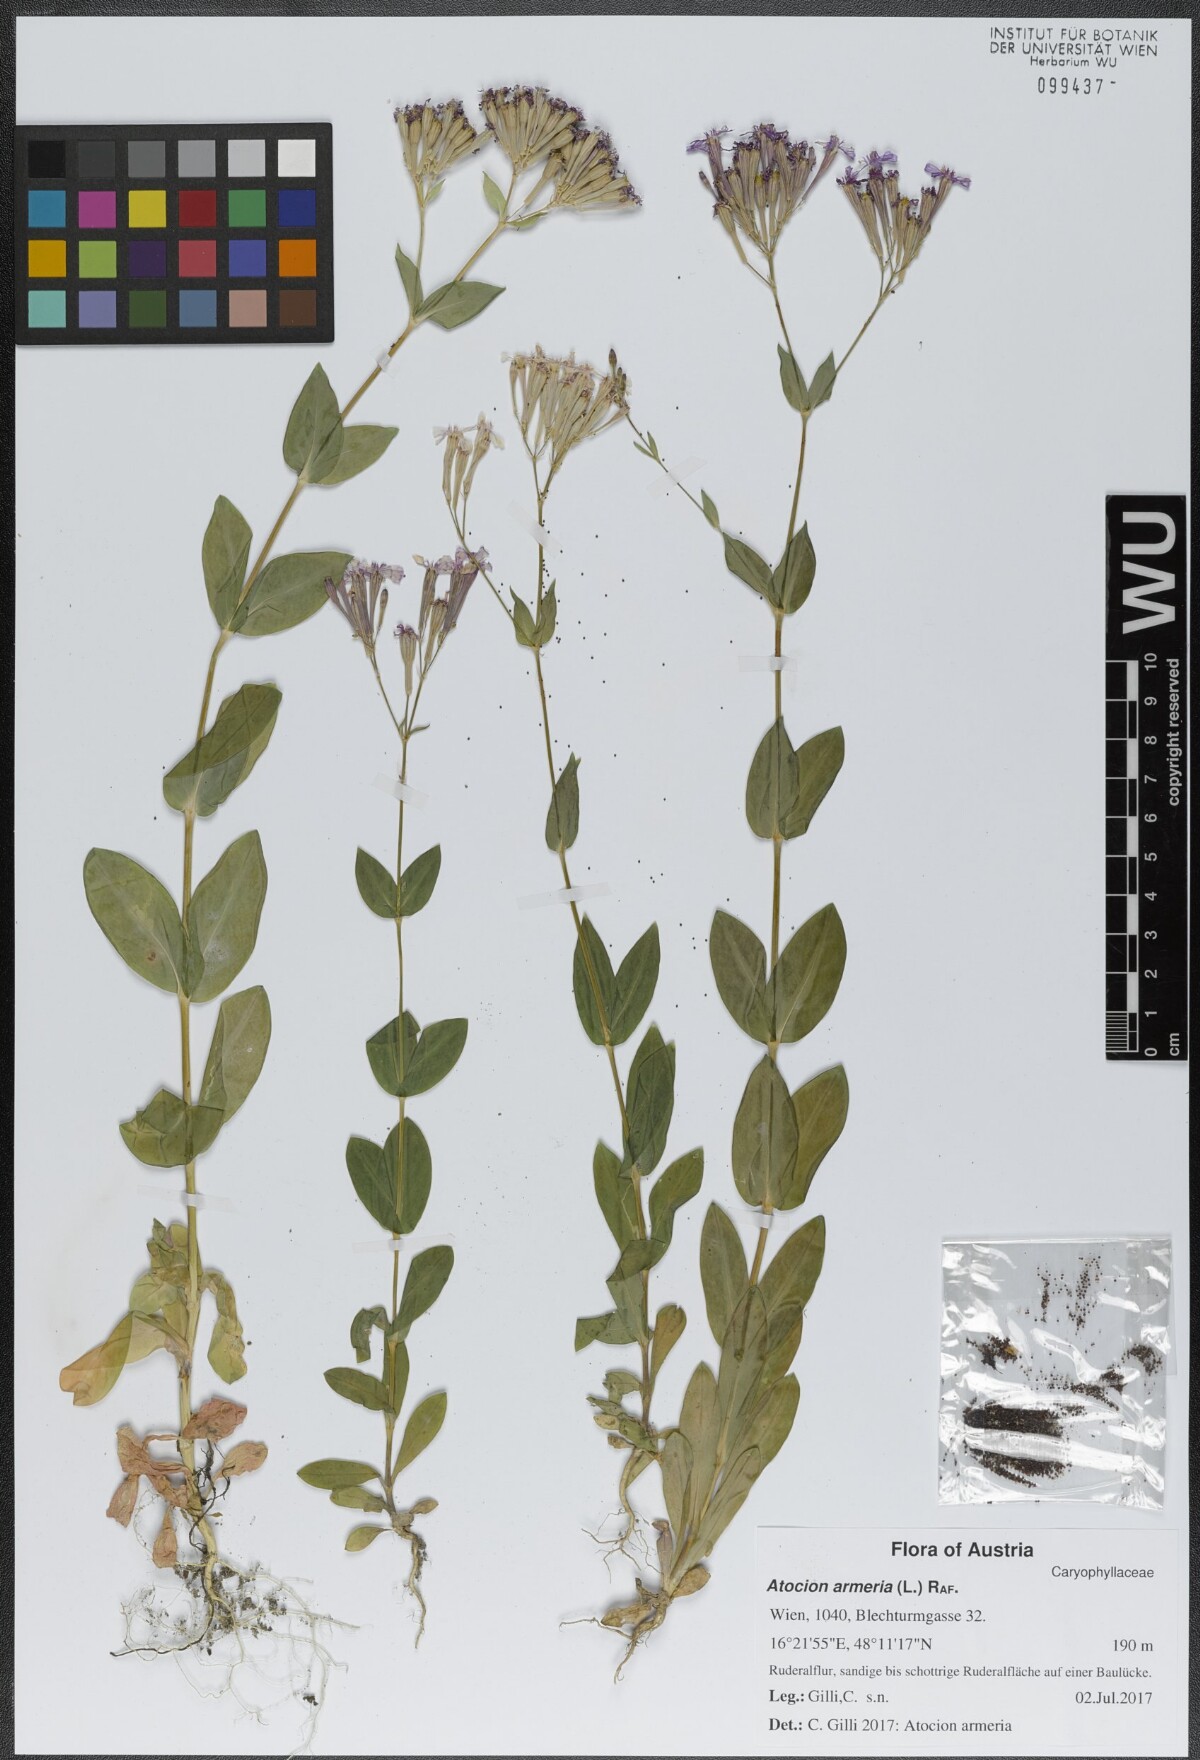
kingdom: Plantae
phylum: Tracheophyta
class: Magnoliopsida
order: Caryophyllales
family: Caryophyllaceae
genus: Atocion
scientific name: Atocion armeria
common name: Sweet william catchfly
